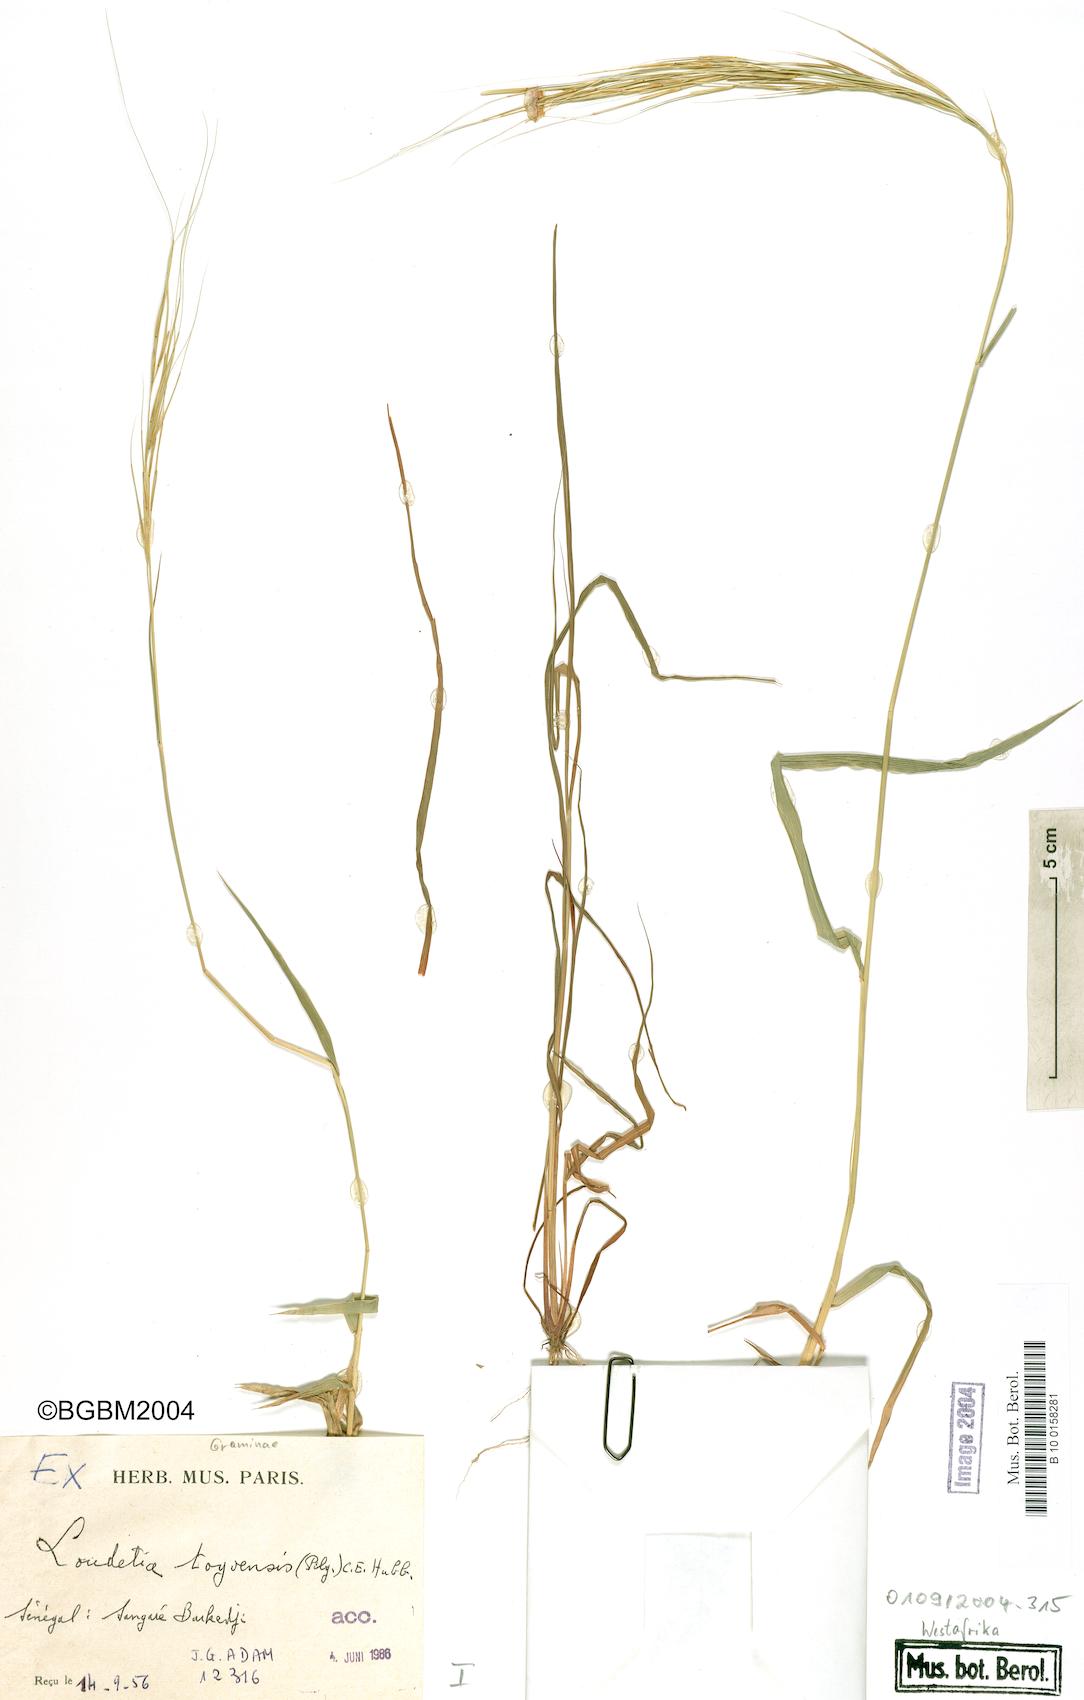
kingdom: Plantae
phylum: Tracheophyta
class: Liliopsida
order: Poales
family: Poaceae
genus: Loudetia
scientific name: Loudetia togoensis
